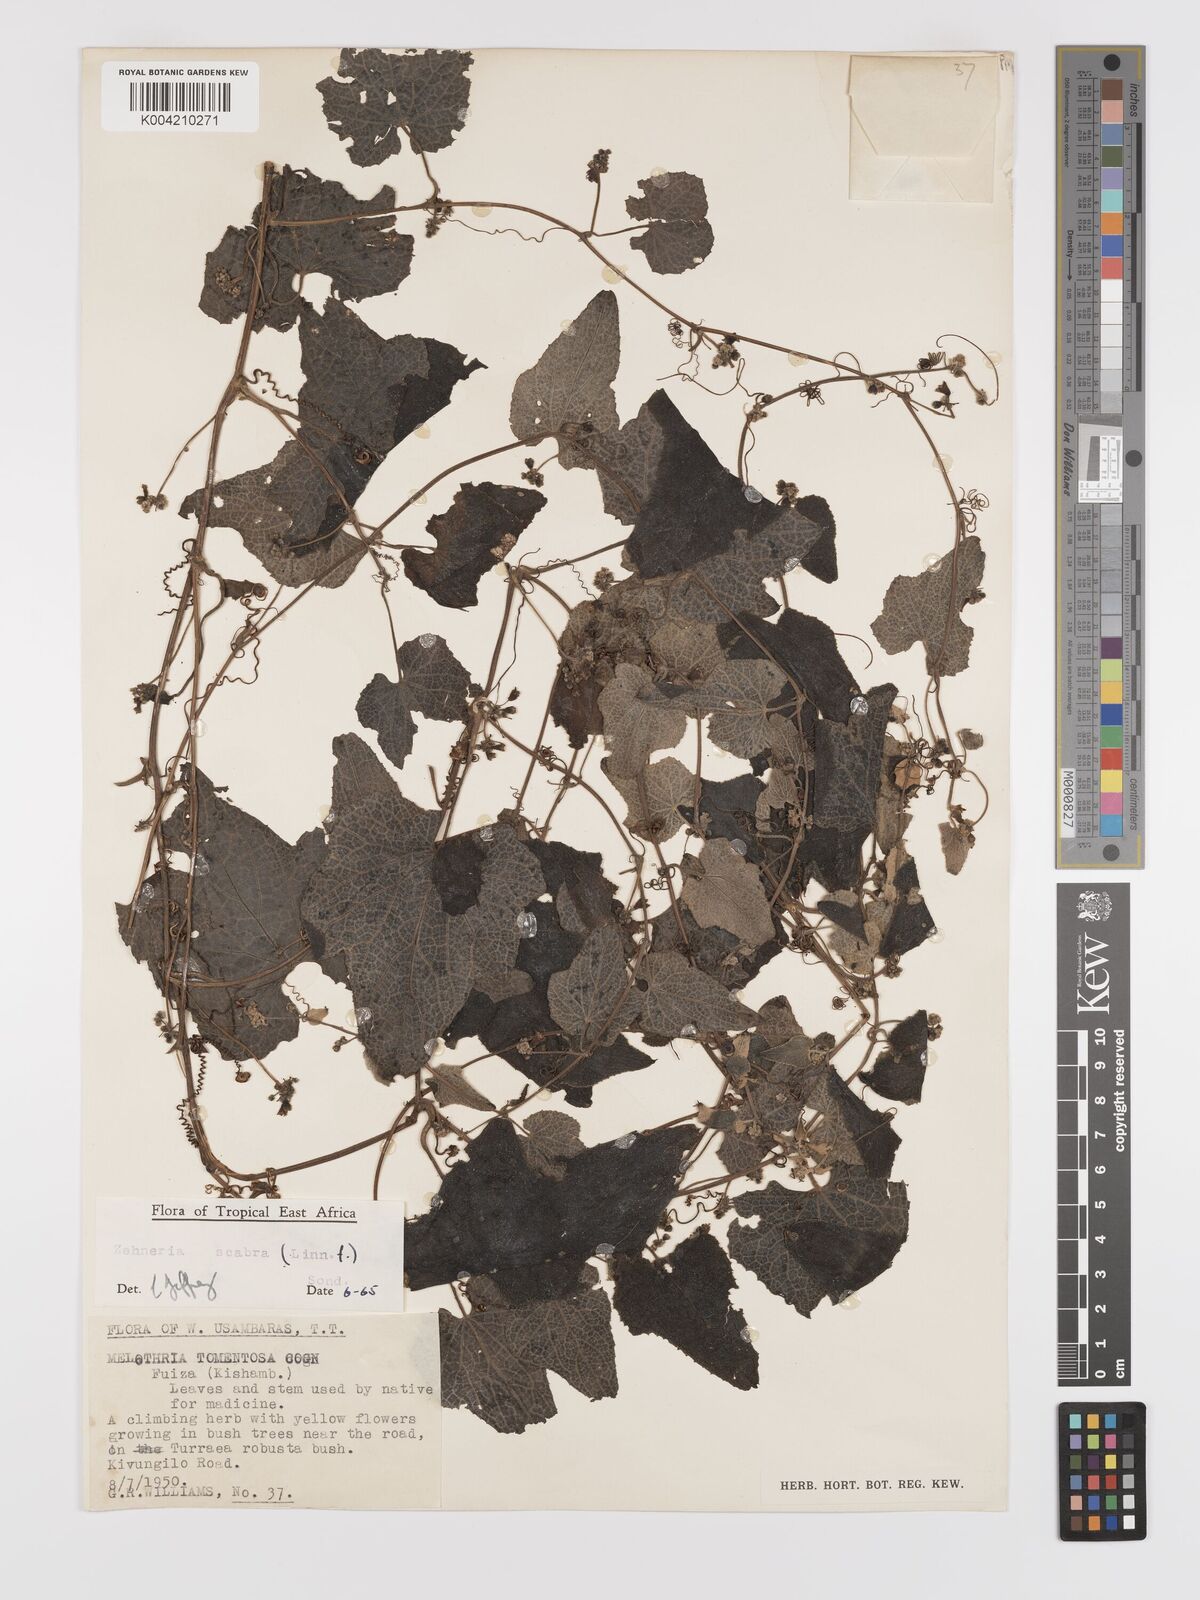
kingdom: Plantae
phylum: Tracheophyta
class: Magnoliopsida
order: Cucurbitales
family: Cucurbitaceae
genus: Zehneria
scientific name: Zehneria scabra
